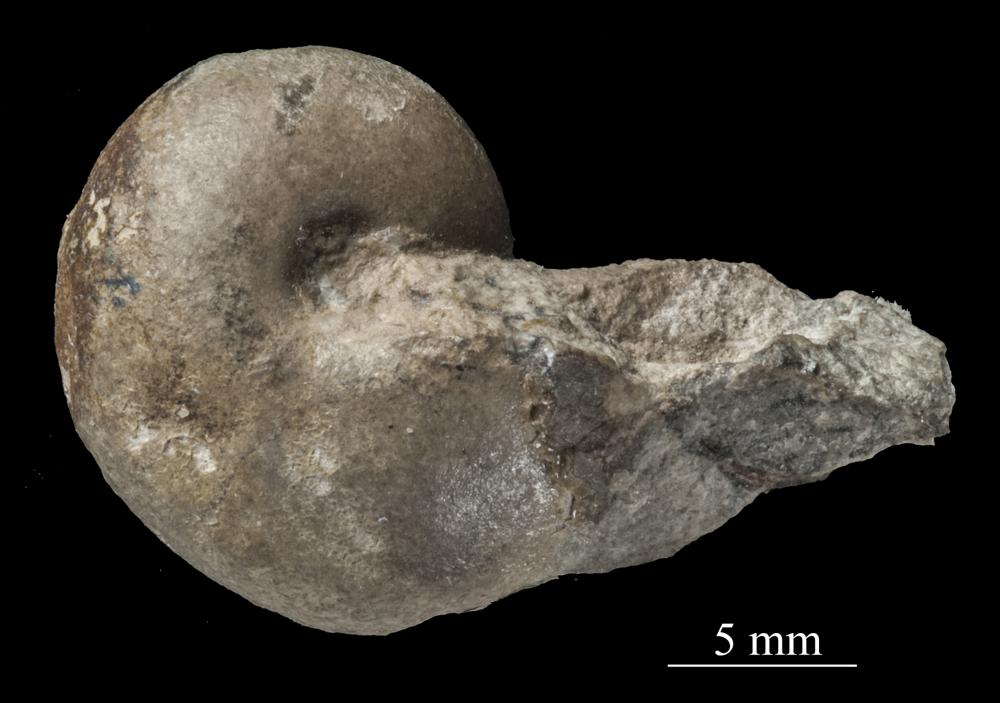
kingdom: Animalia
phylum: Mollusca
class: Gastropoda
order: Pleurotomariida
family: Pleurotomariidae
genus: Pleurotomaria
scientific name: Pleurotomaria
